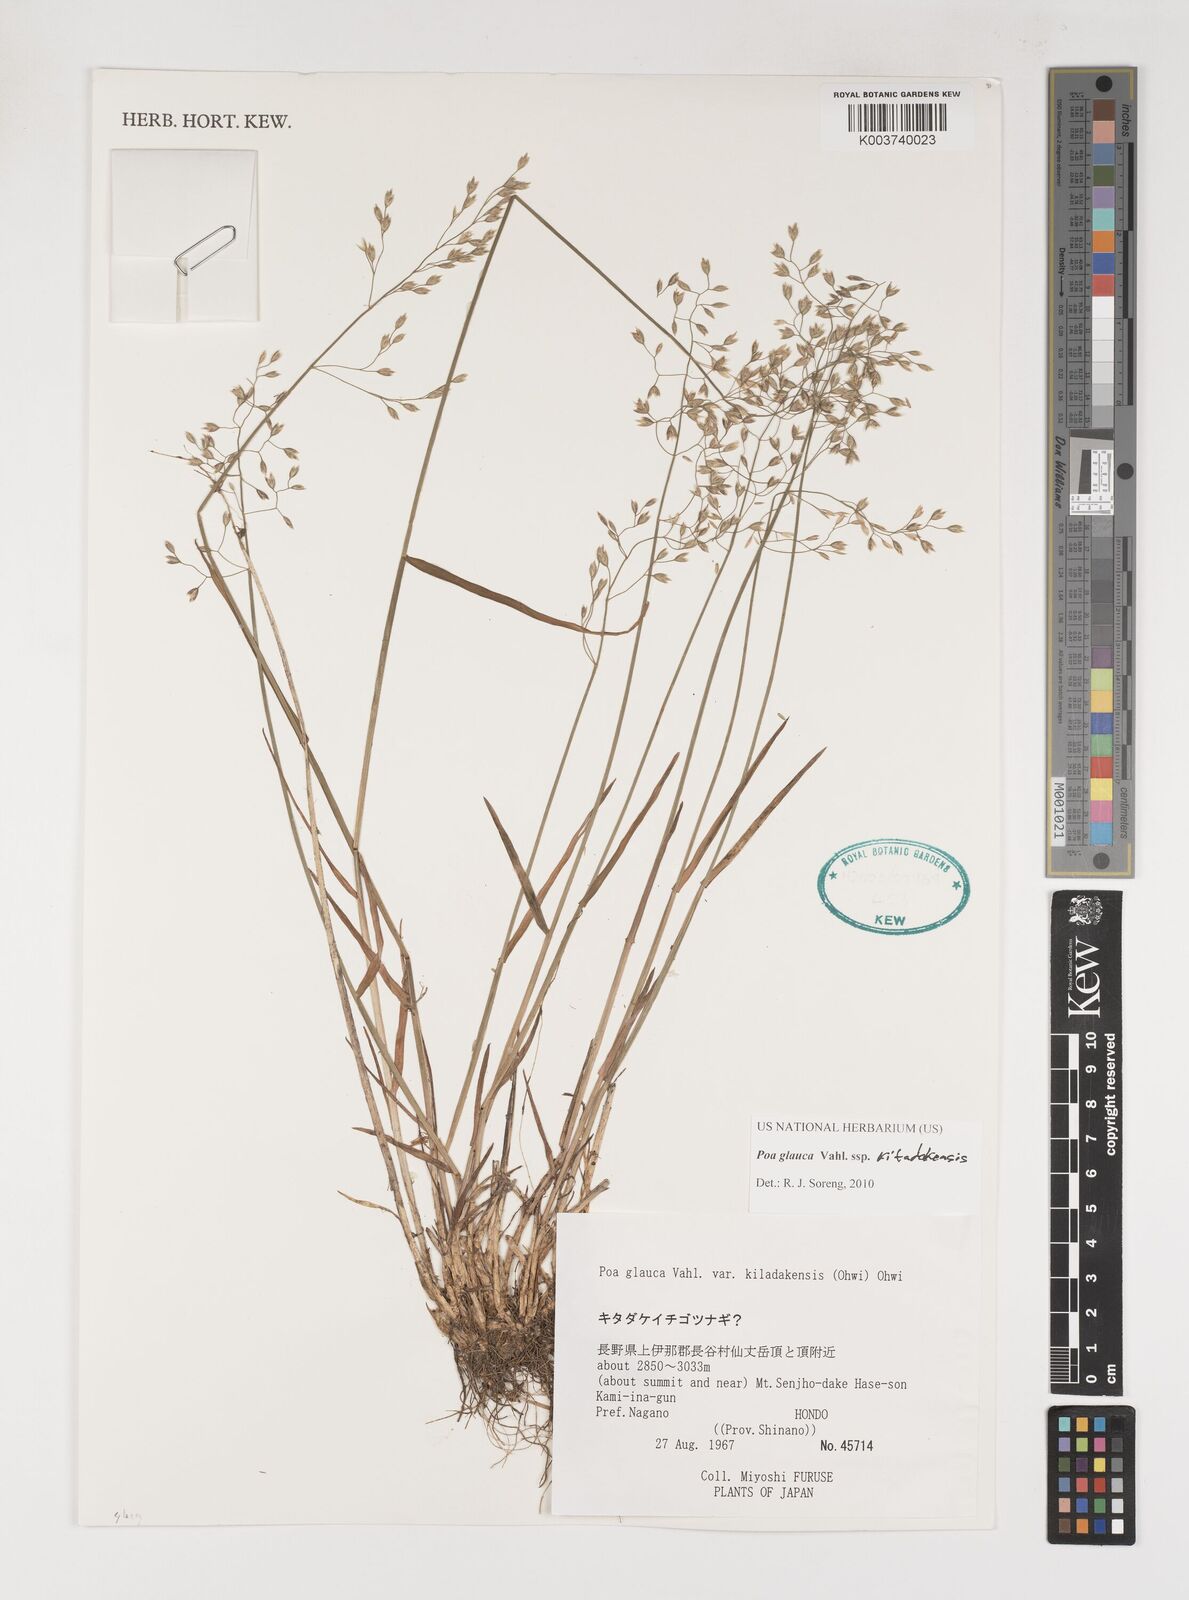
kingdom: Plantae
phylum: Tracheophyta
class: Liliopsida
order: Poales
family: Poaceae
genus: Poa
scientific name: Poa glauca
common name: Glaucous bluegrass
